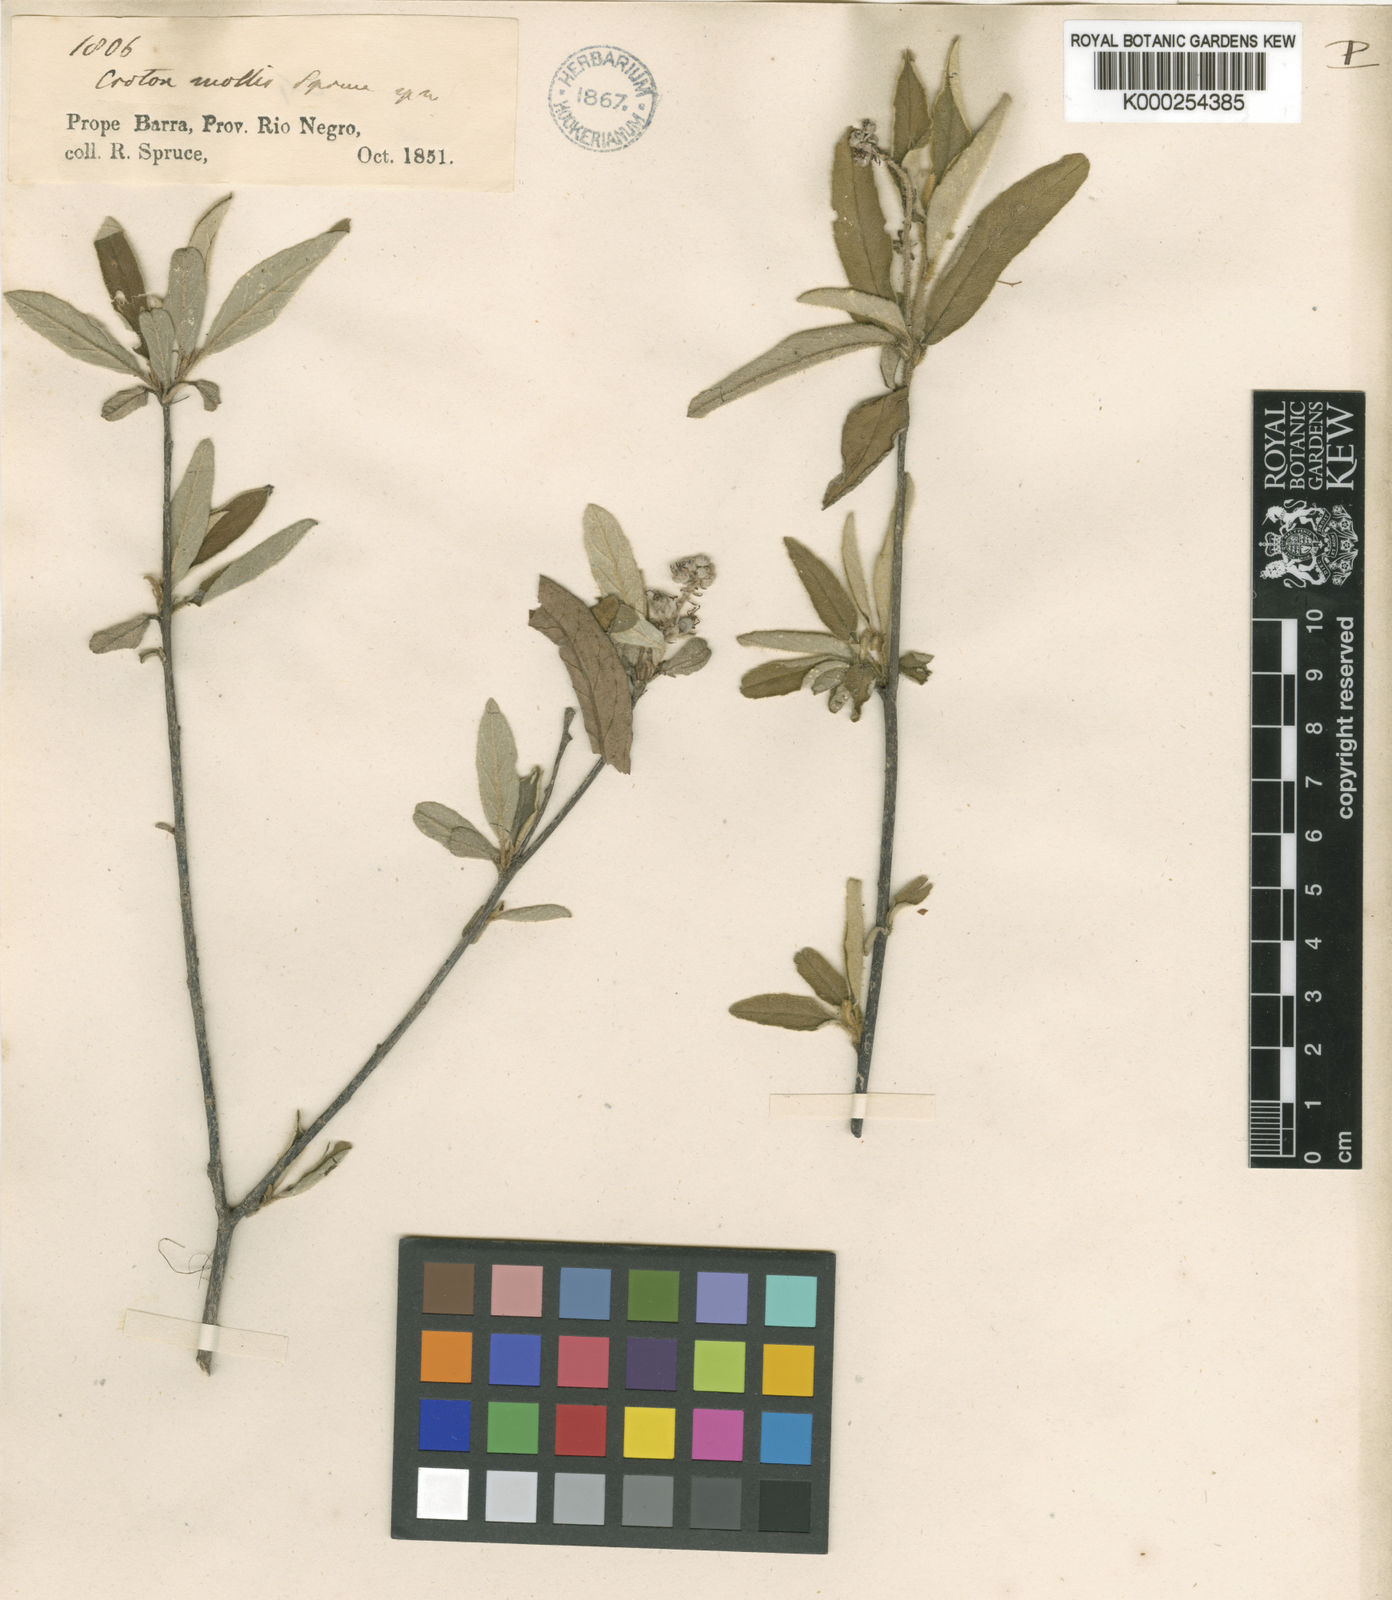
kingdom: Plantae
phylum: Tracheophyta
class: Magnoliopsida
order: Malpighiales
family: Euphorbiaceae
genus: Croton
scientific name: Croton mollis
